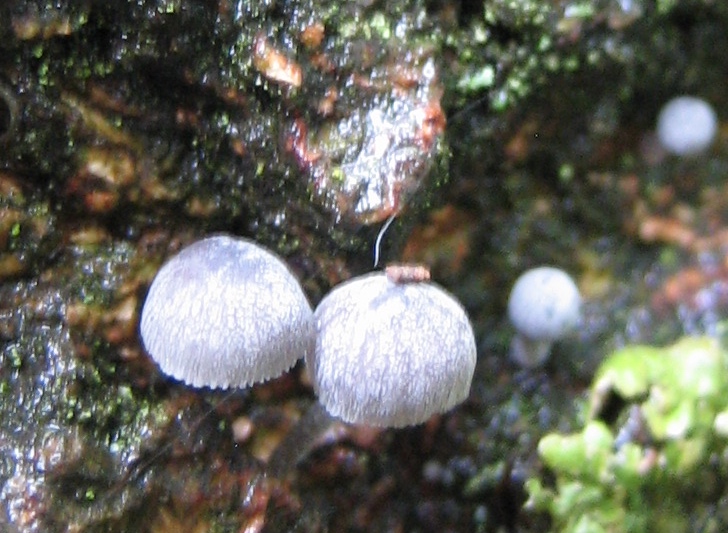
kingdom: Fungi
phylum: Basidiomycota
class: Agaricomycetes
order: Agaricales
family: Mycenaceae
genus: Mycena
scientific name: Mycena pseudocorticola
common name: gråblå bark-huesvamp
